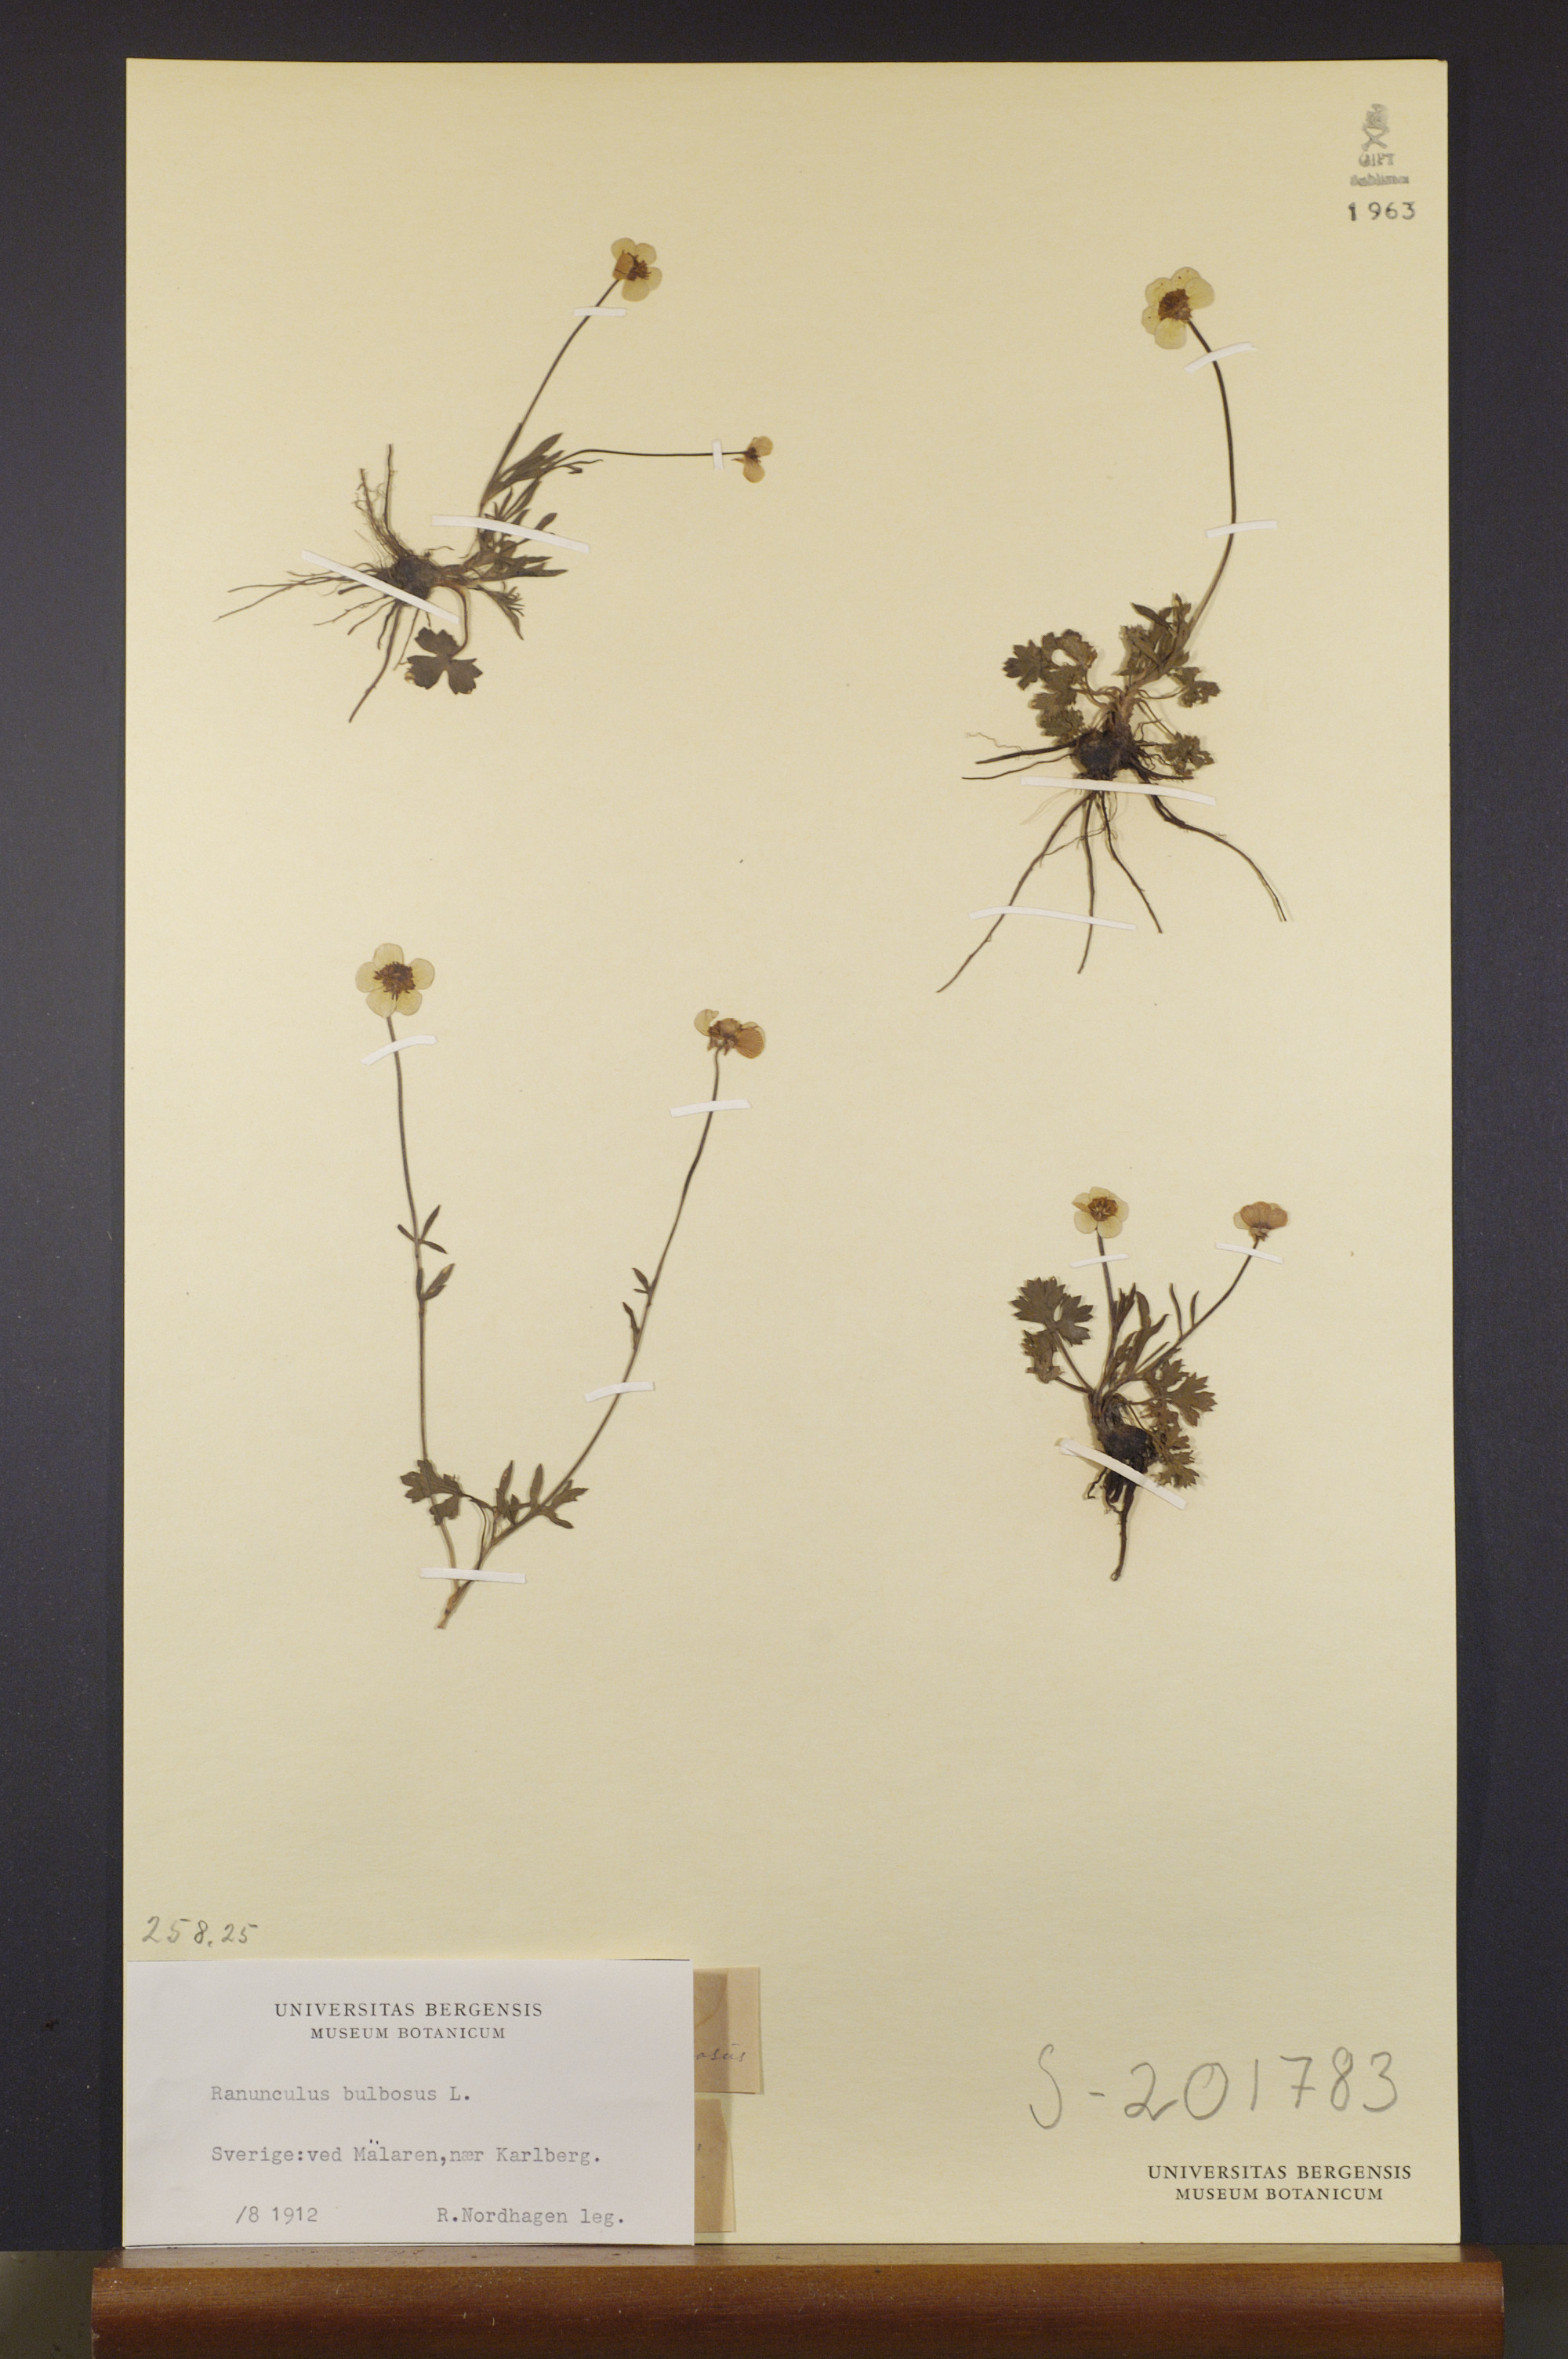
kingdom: Plantae
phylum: Tracheophyta
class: Magnoliopsida
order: Ranunculales
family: Ranunculaceae
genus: Ranunculus
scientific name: Ranunculus bulbosus
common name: Bulbous buttercup
